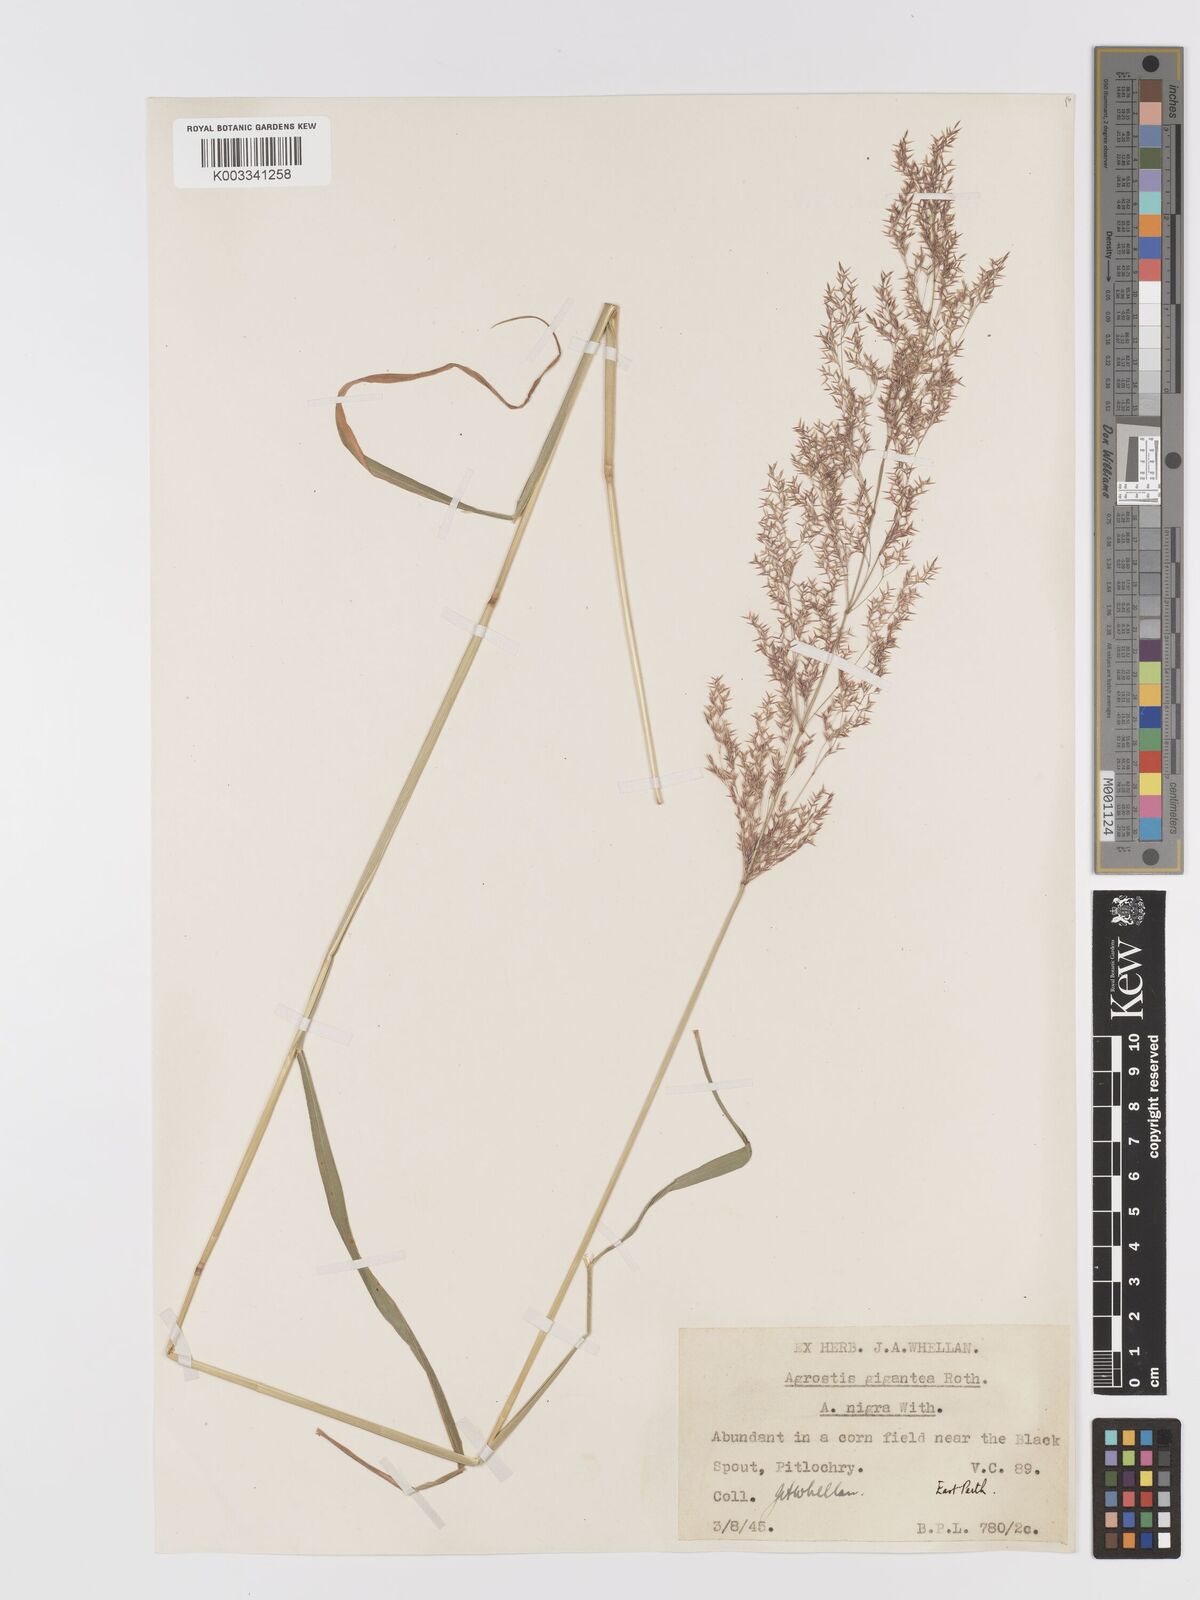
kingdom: Plantae
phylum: Tracheophyta
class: Liliopsida
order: Poales
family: Poaceae
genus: Agrostis
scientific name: Agrostis gigantea
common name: Black bent
